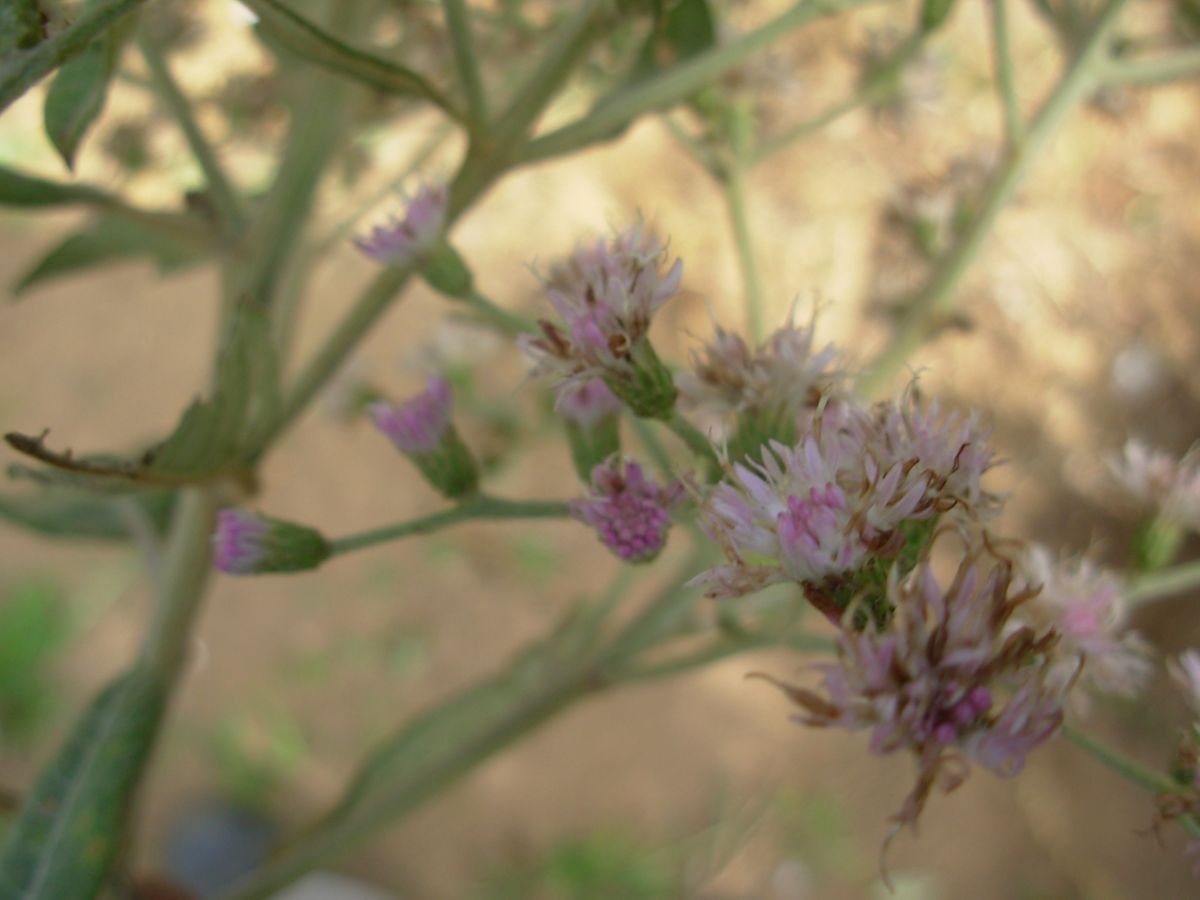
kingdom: Plantae
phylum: Tracheophyta
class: Magnoliopsida
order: Asterales
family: Asteraceae
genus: Vernonanthura
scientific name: Vernonanthura stellaris
